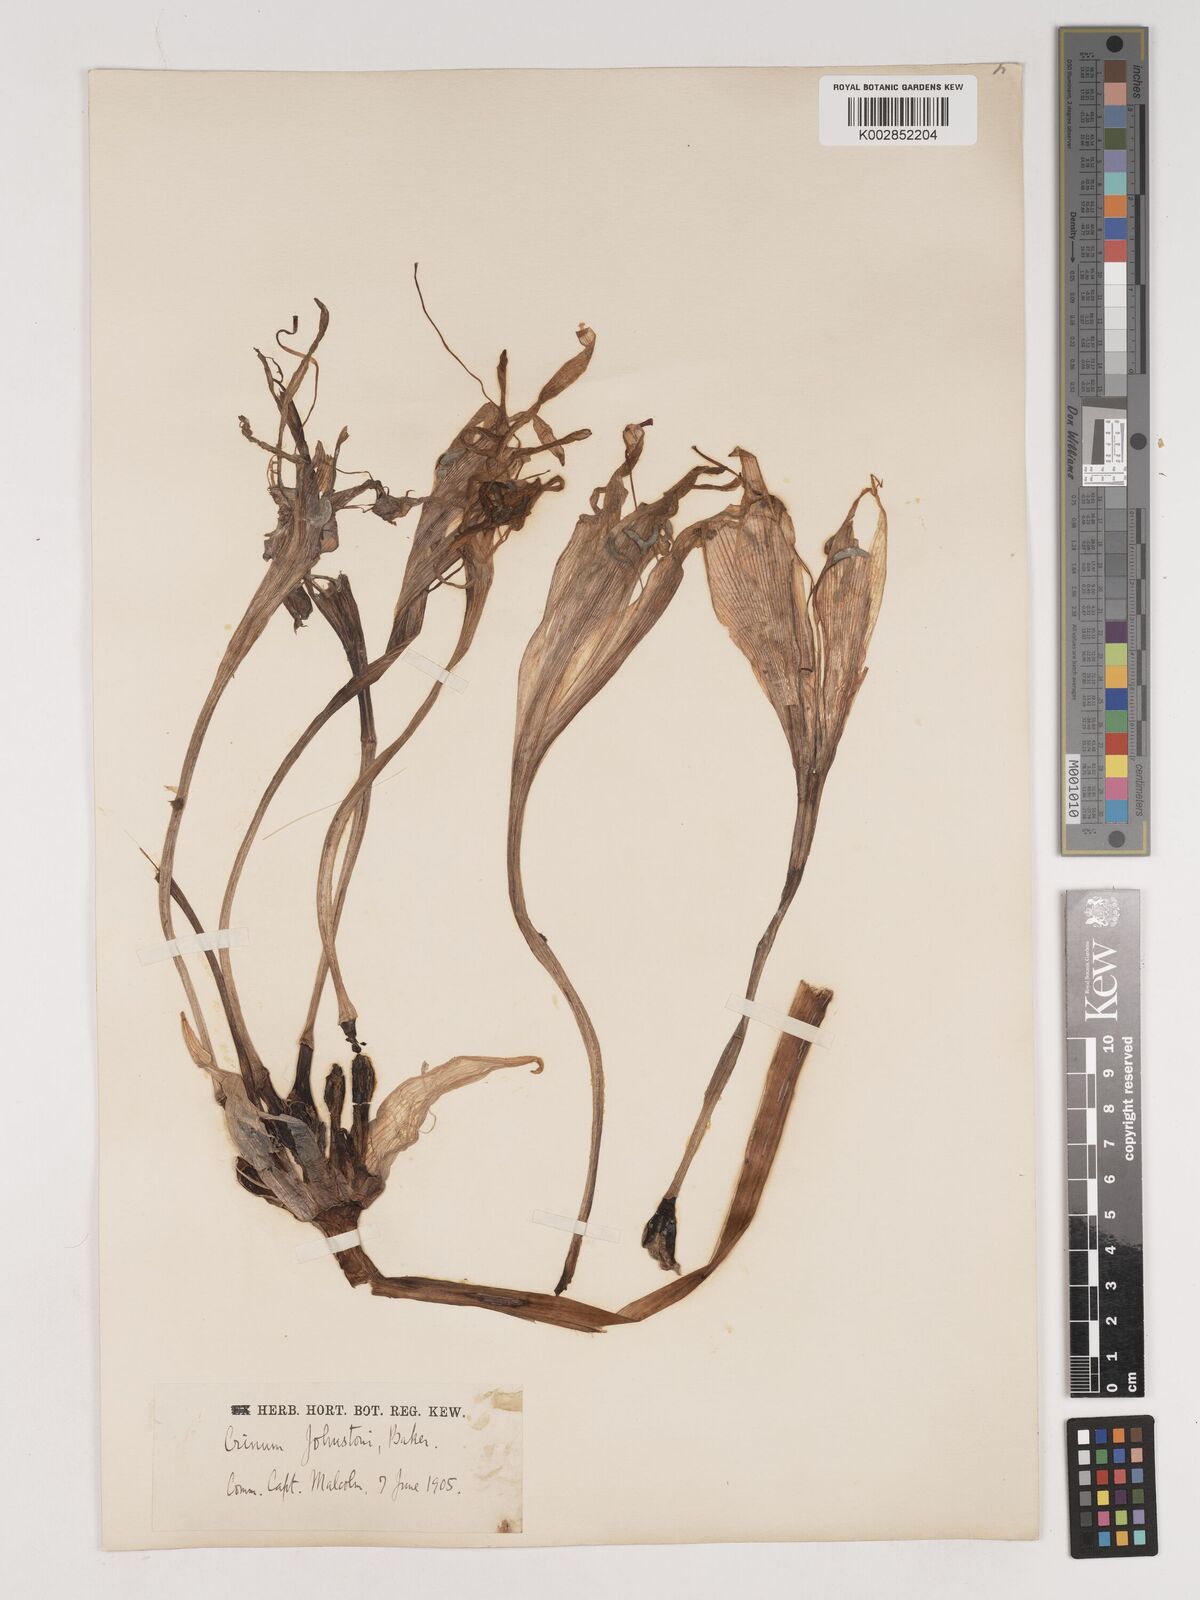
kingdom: Plantae
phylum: Tracheophyta
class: Liliopsida
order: Asparagales
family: Amaryllidaceae
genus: Crinum
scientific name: Crinum macowanii
